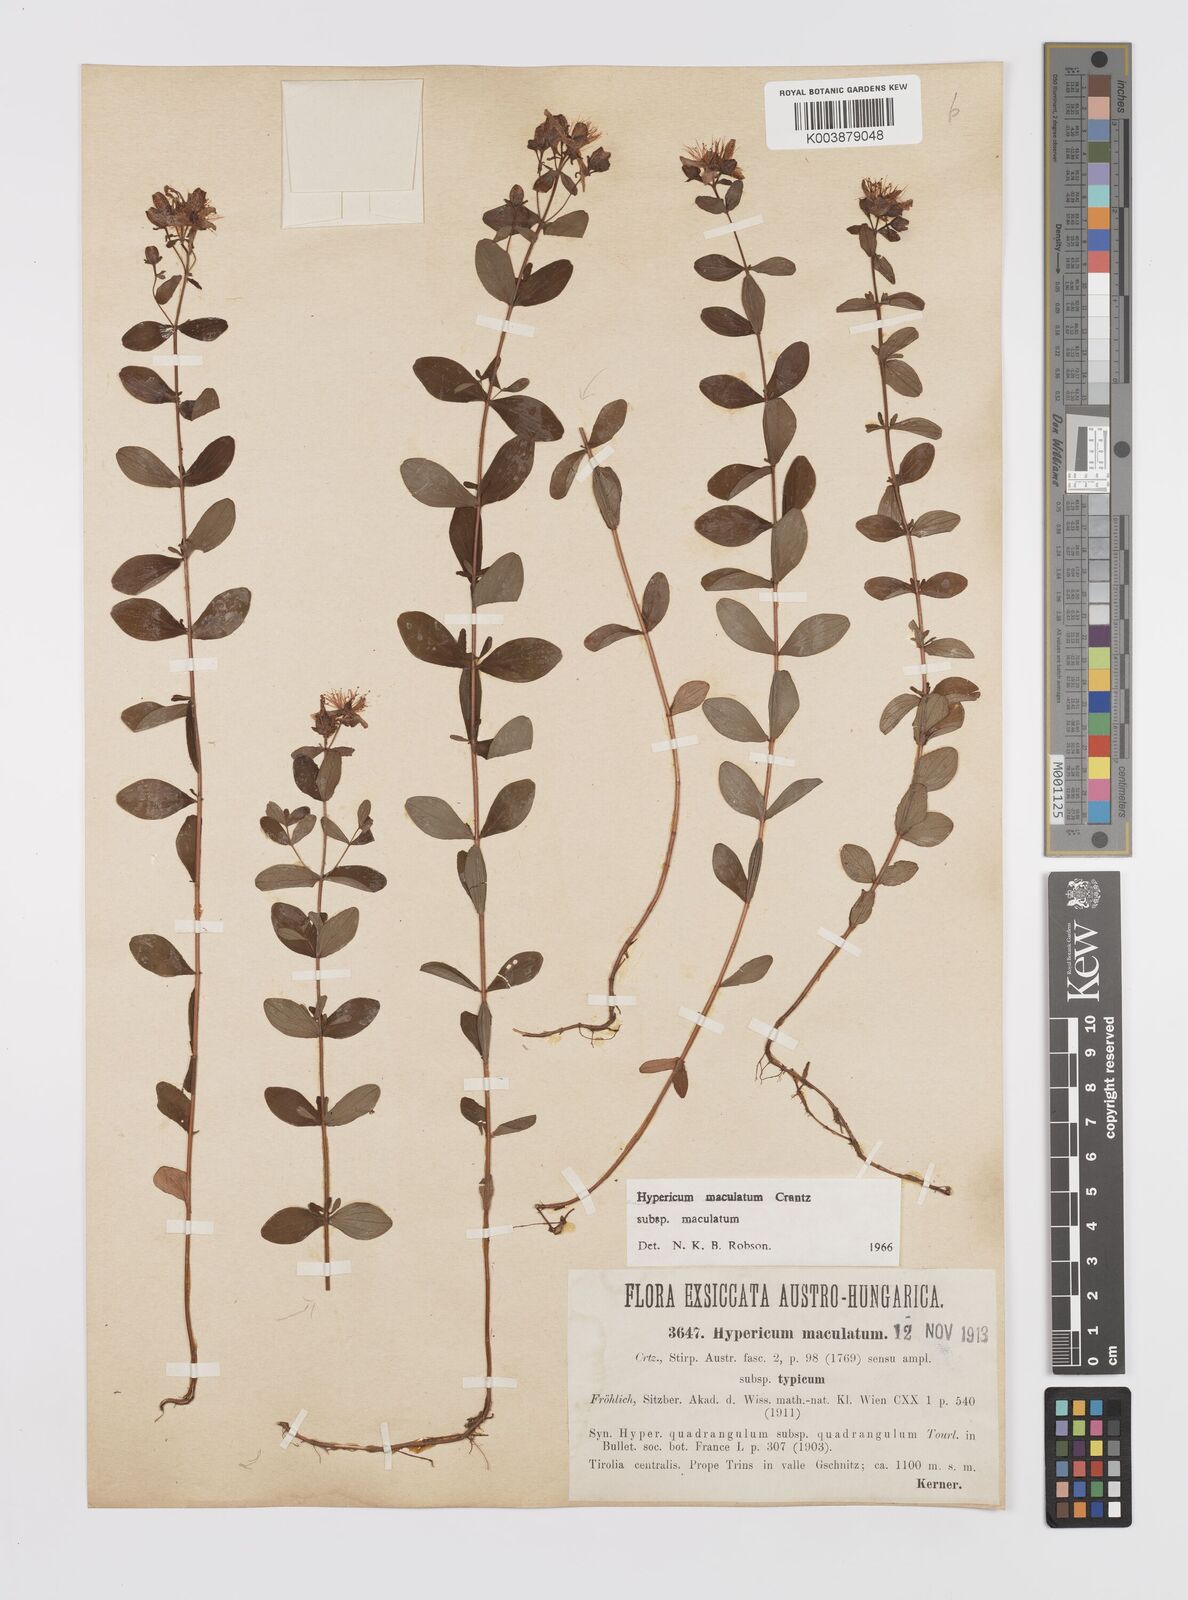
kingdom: Plantae
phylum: Tracheophyta
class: Magnoliopsida
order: Malpighiales
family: Hypericaceae
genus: Hypericum
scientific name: Hypericum maculatum
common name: Imperforate st. john's-wort
